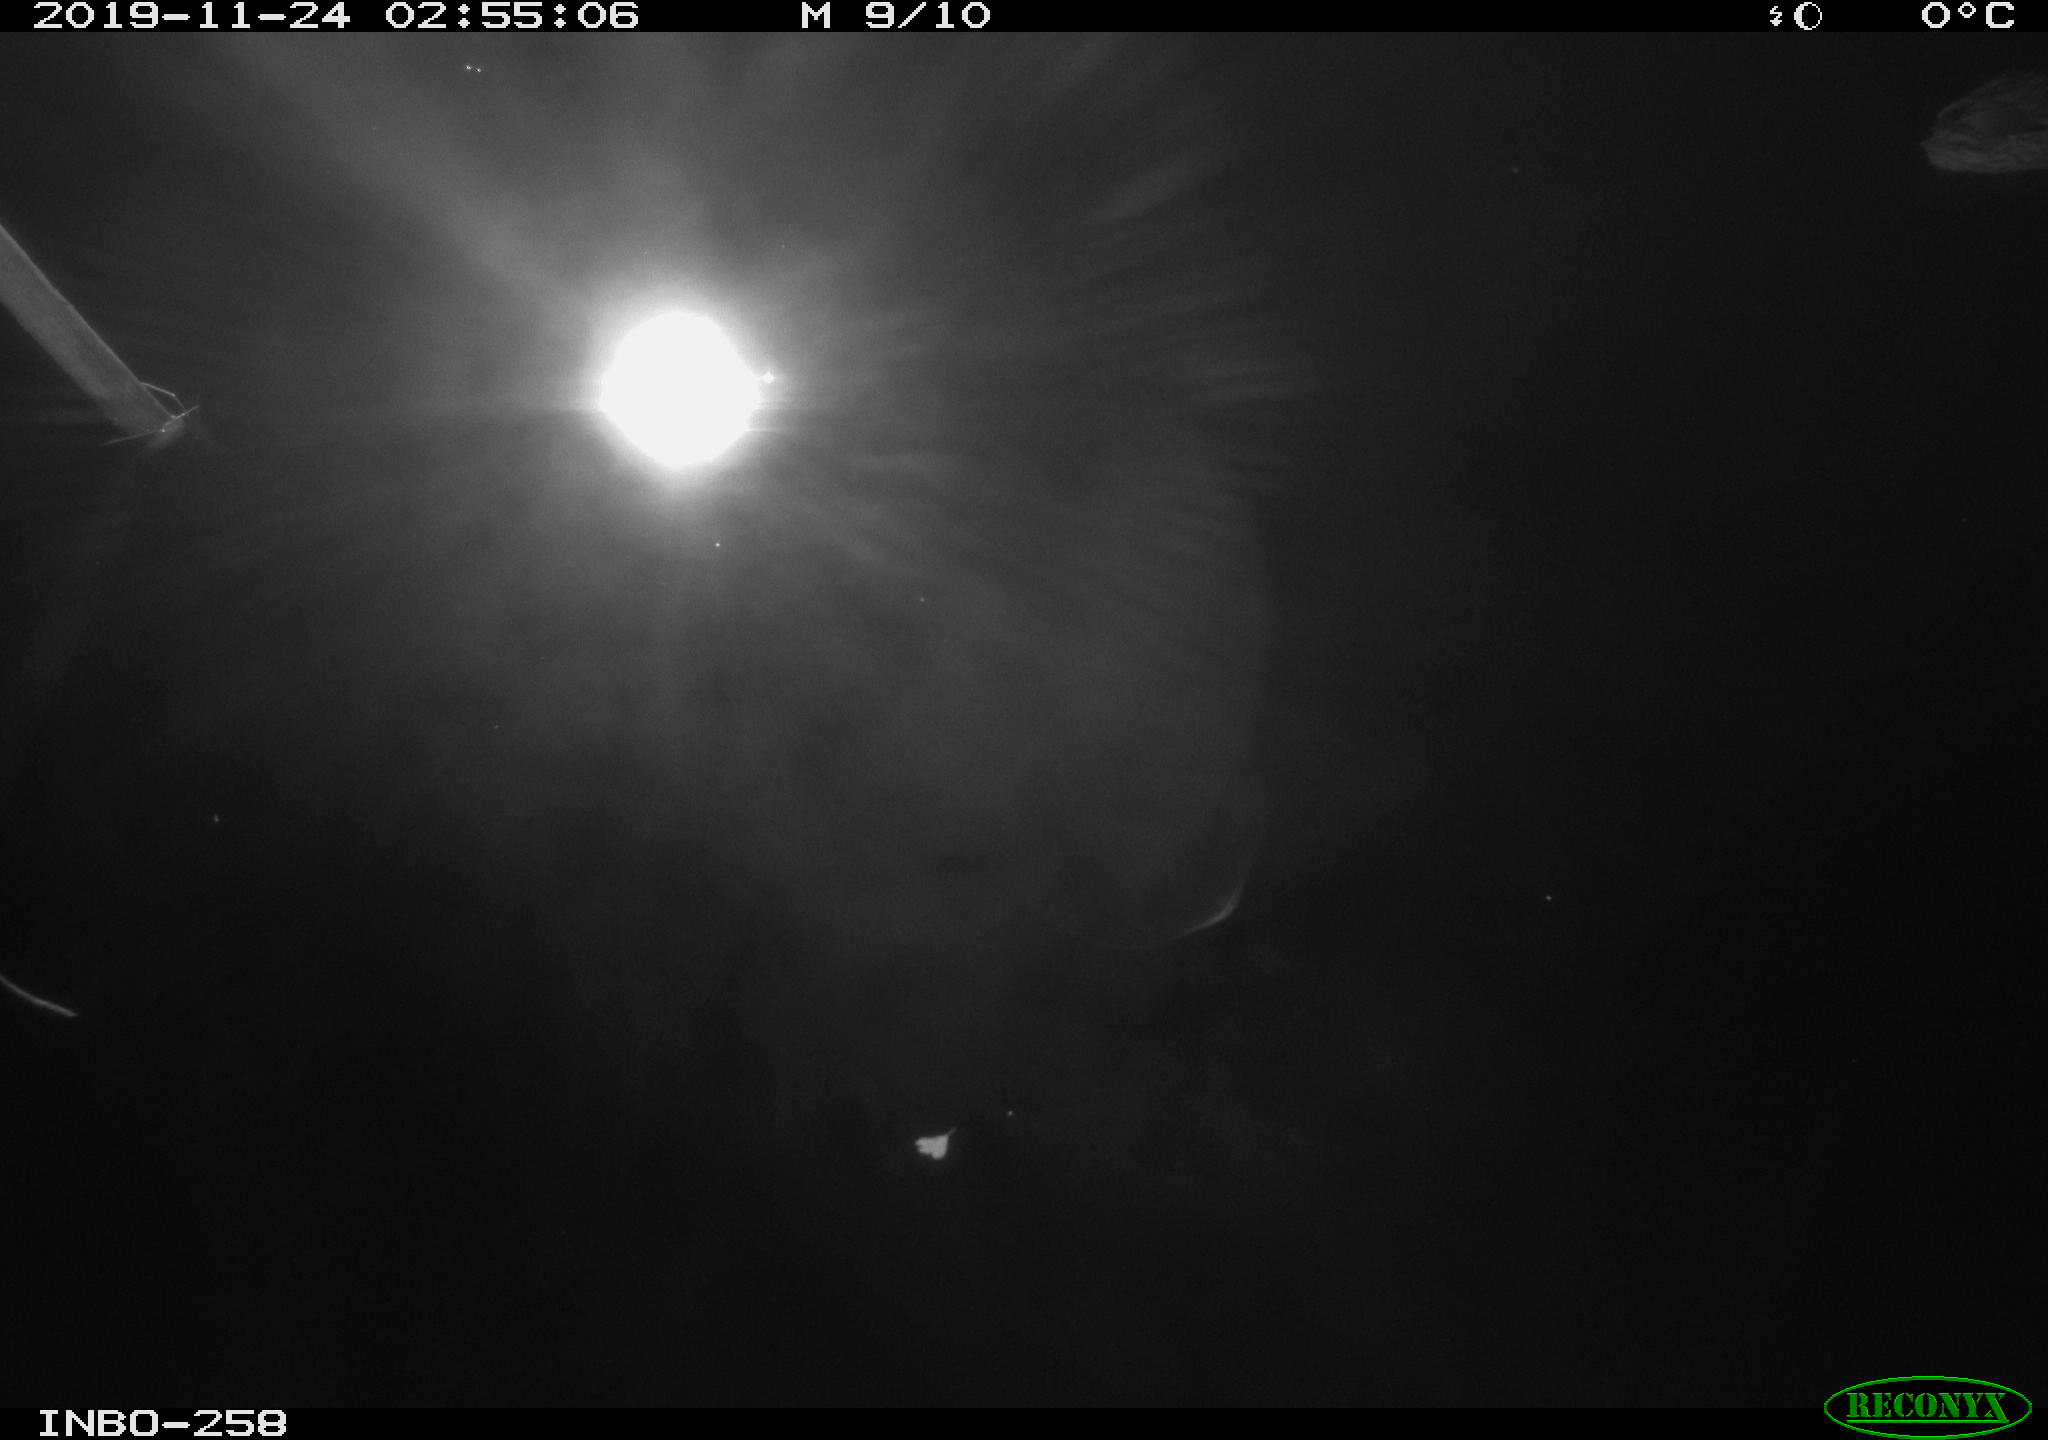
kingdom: Animalia
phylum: Chordata
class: Aves
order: Anseriformes
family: Anatidae
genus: Anas
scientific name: Anas platyrhynchos
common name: Mallard
